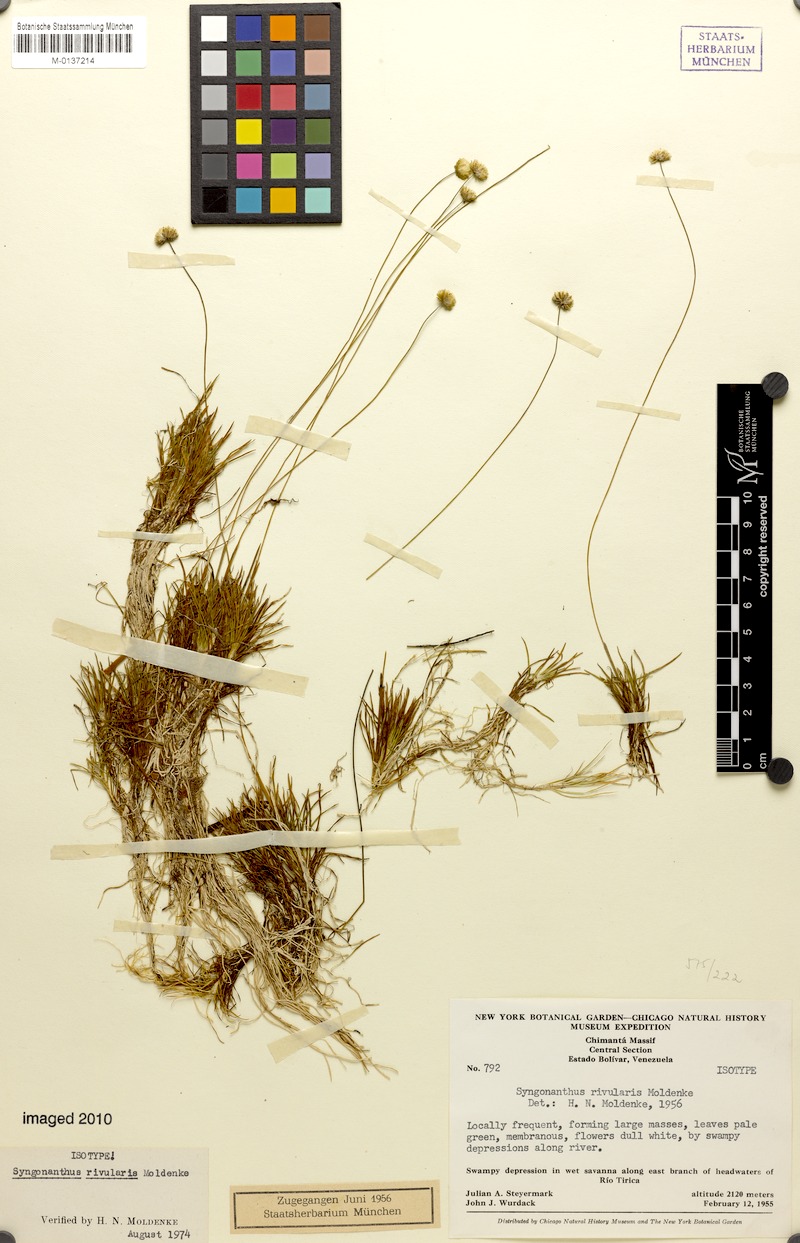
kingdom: Plantae
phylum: Tracheophyta
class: Liliopsida
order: Poales
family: Eriocaulaceae
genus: Syngonanthus
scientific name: Syngonanthus pakaraimensis
